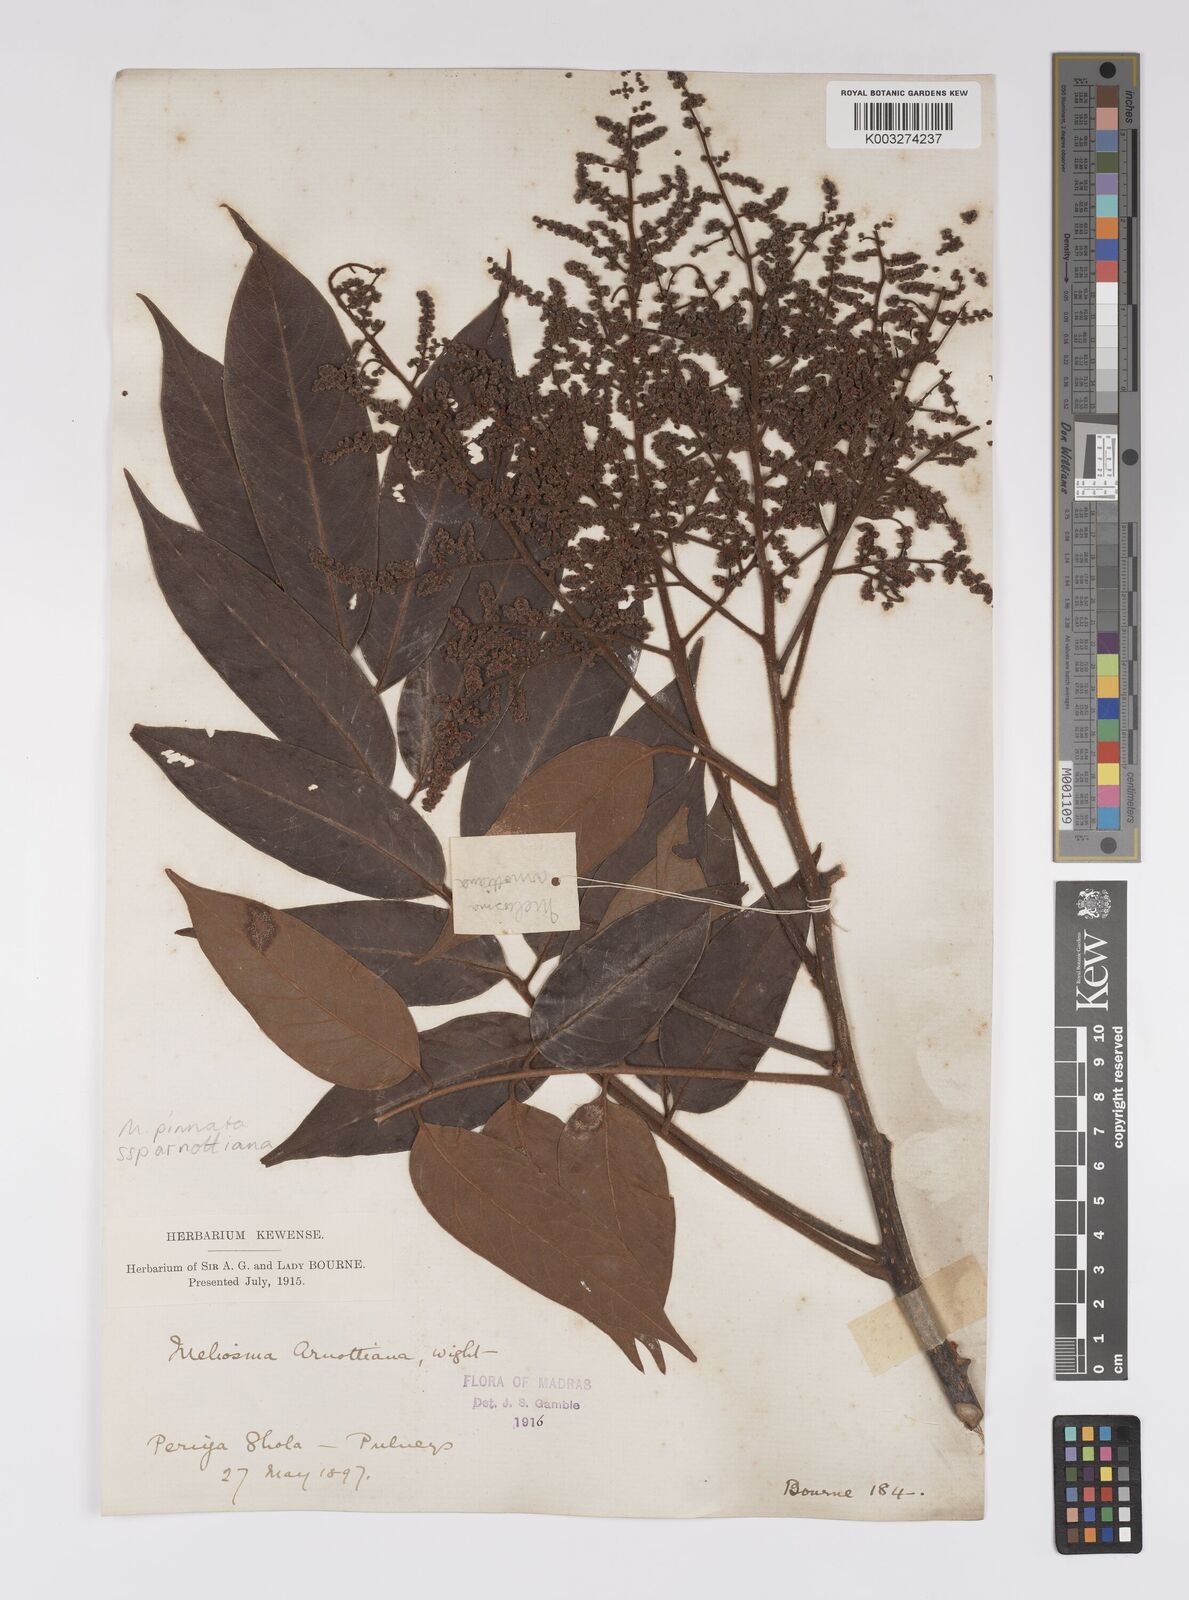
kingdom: Plantae
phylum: Tracheophyta
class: Magnoliopsida
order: Proteales
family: Sabiaceae
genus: Meliosma
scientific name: Meliosma rhoifolia
